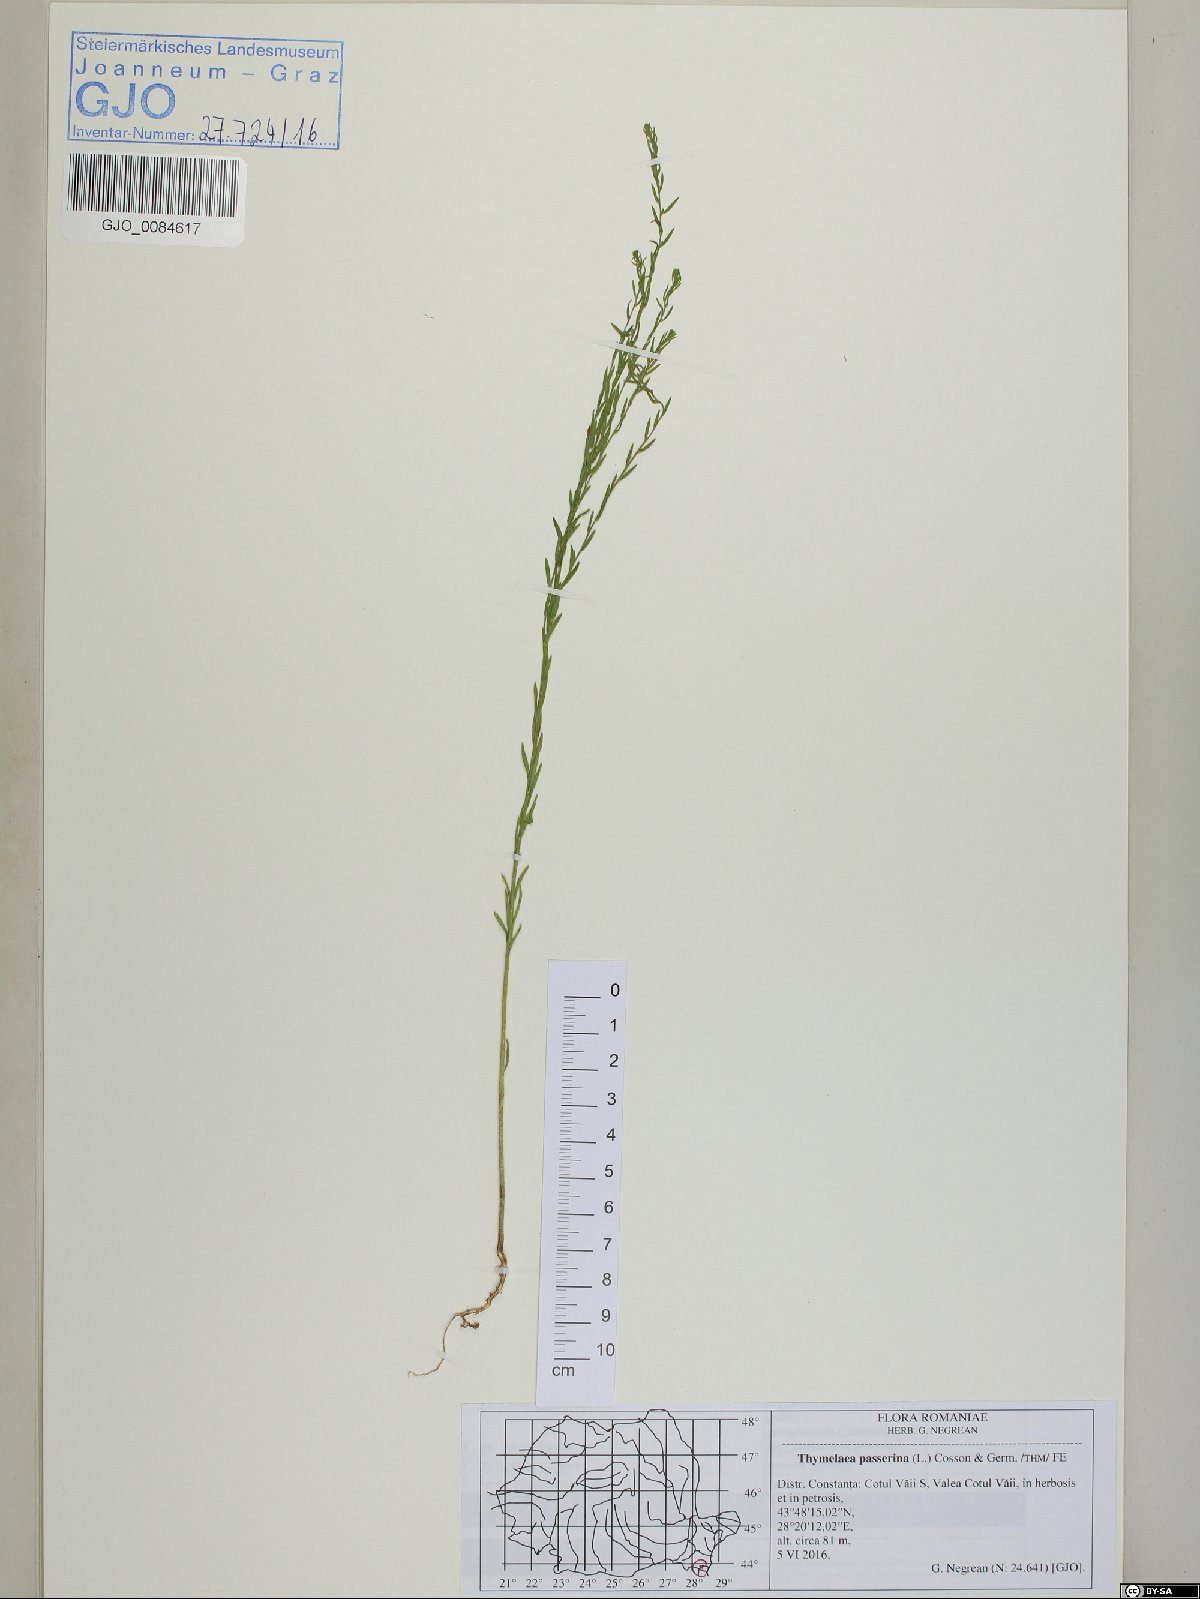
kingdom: Plantae
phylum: Tracheophyta
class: Magnoliopsida
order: Malvales
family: Thymelaeaceae
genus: Thymelaea
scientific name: Thymelaea passerina
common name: Annual thymelaea
